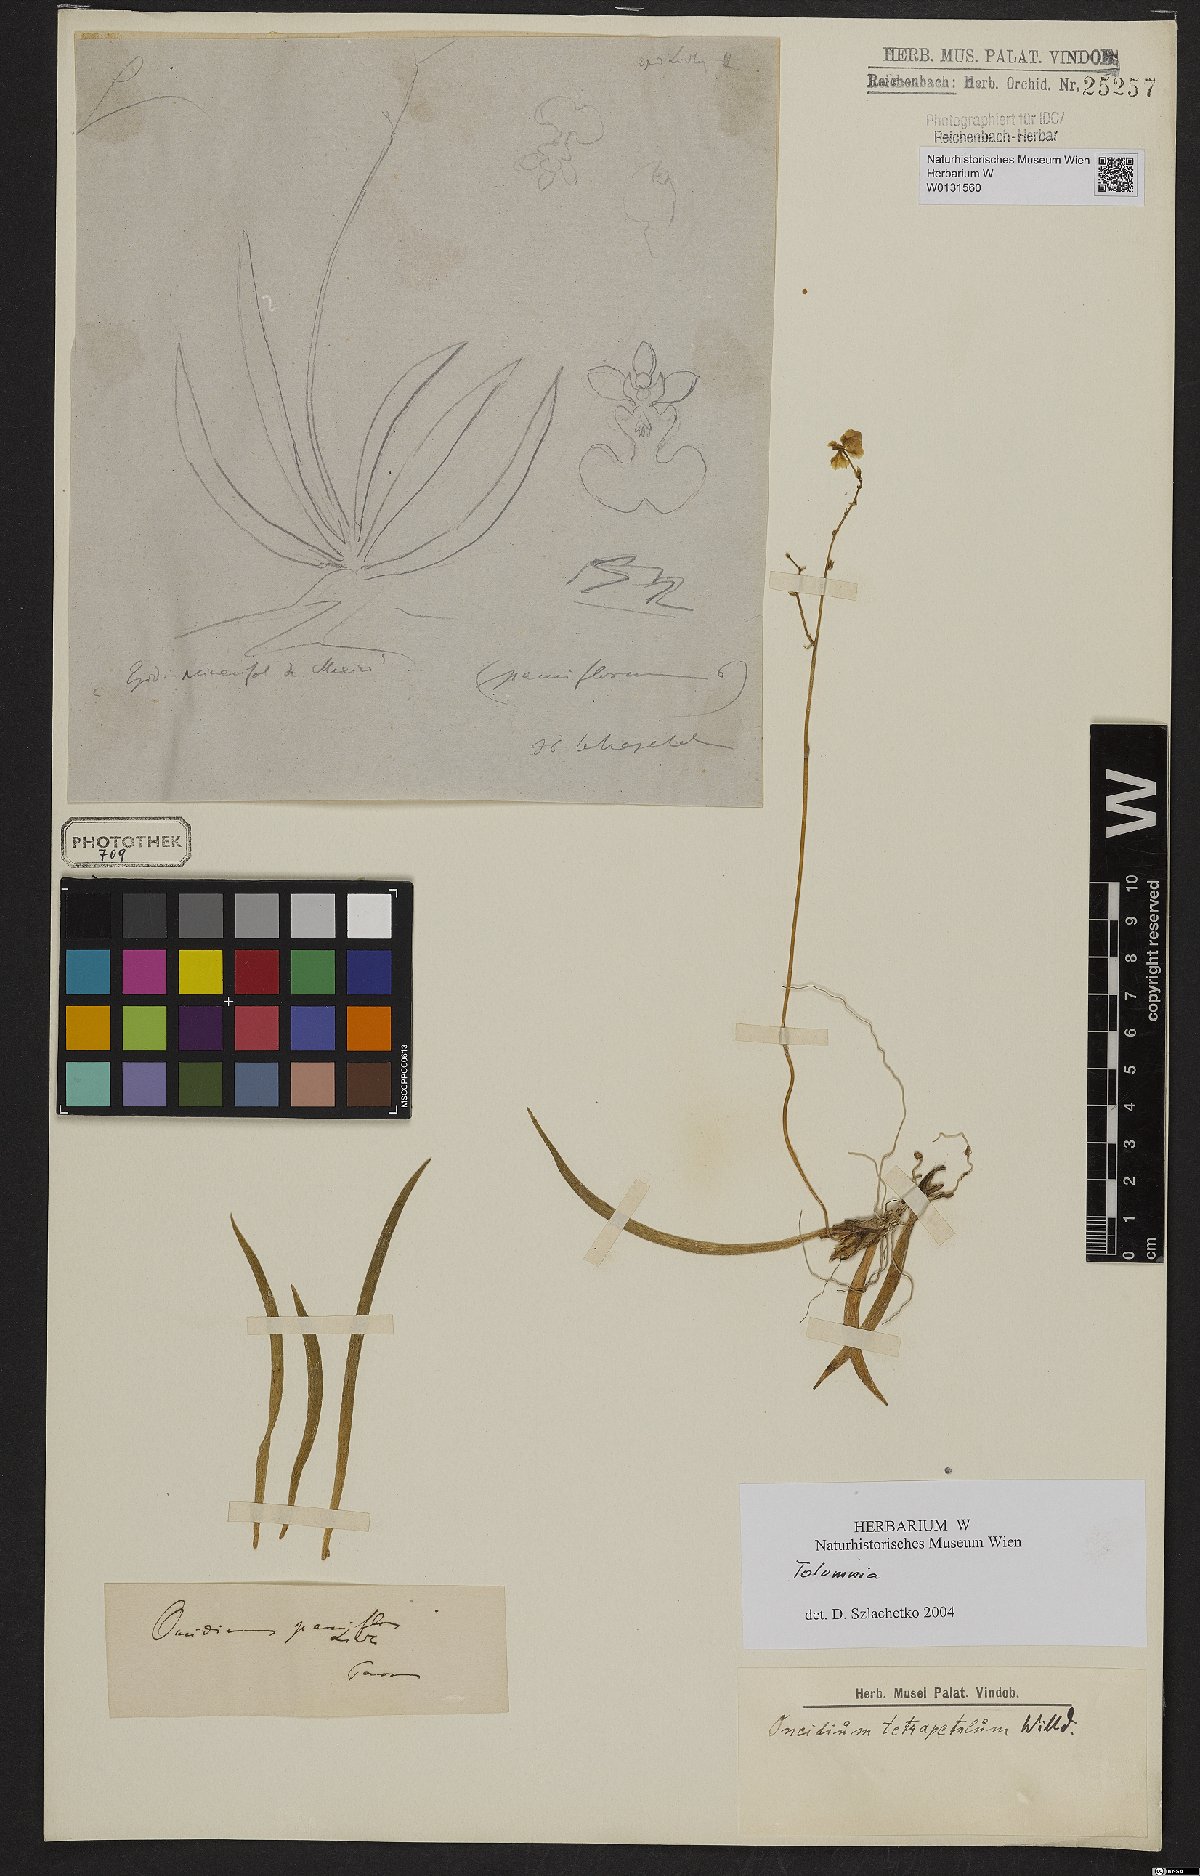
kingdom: Plantae
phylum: Tracheophyta
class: Liliopsida
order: Asparagales
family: Orchidaceae
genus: Tolumnia
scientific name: Tolumnia
